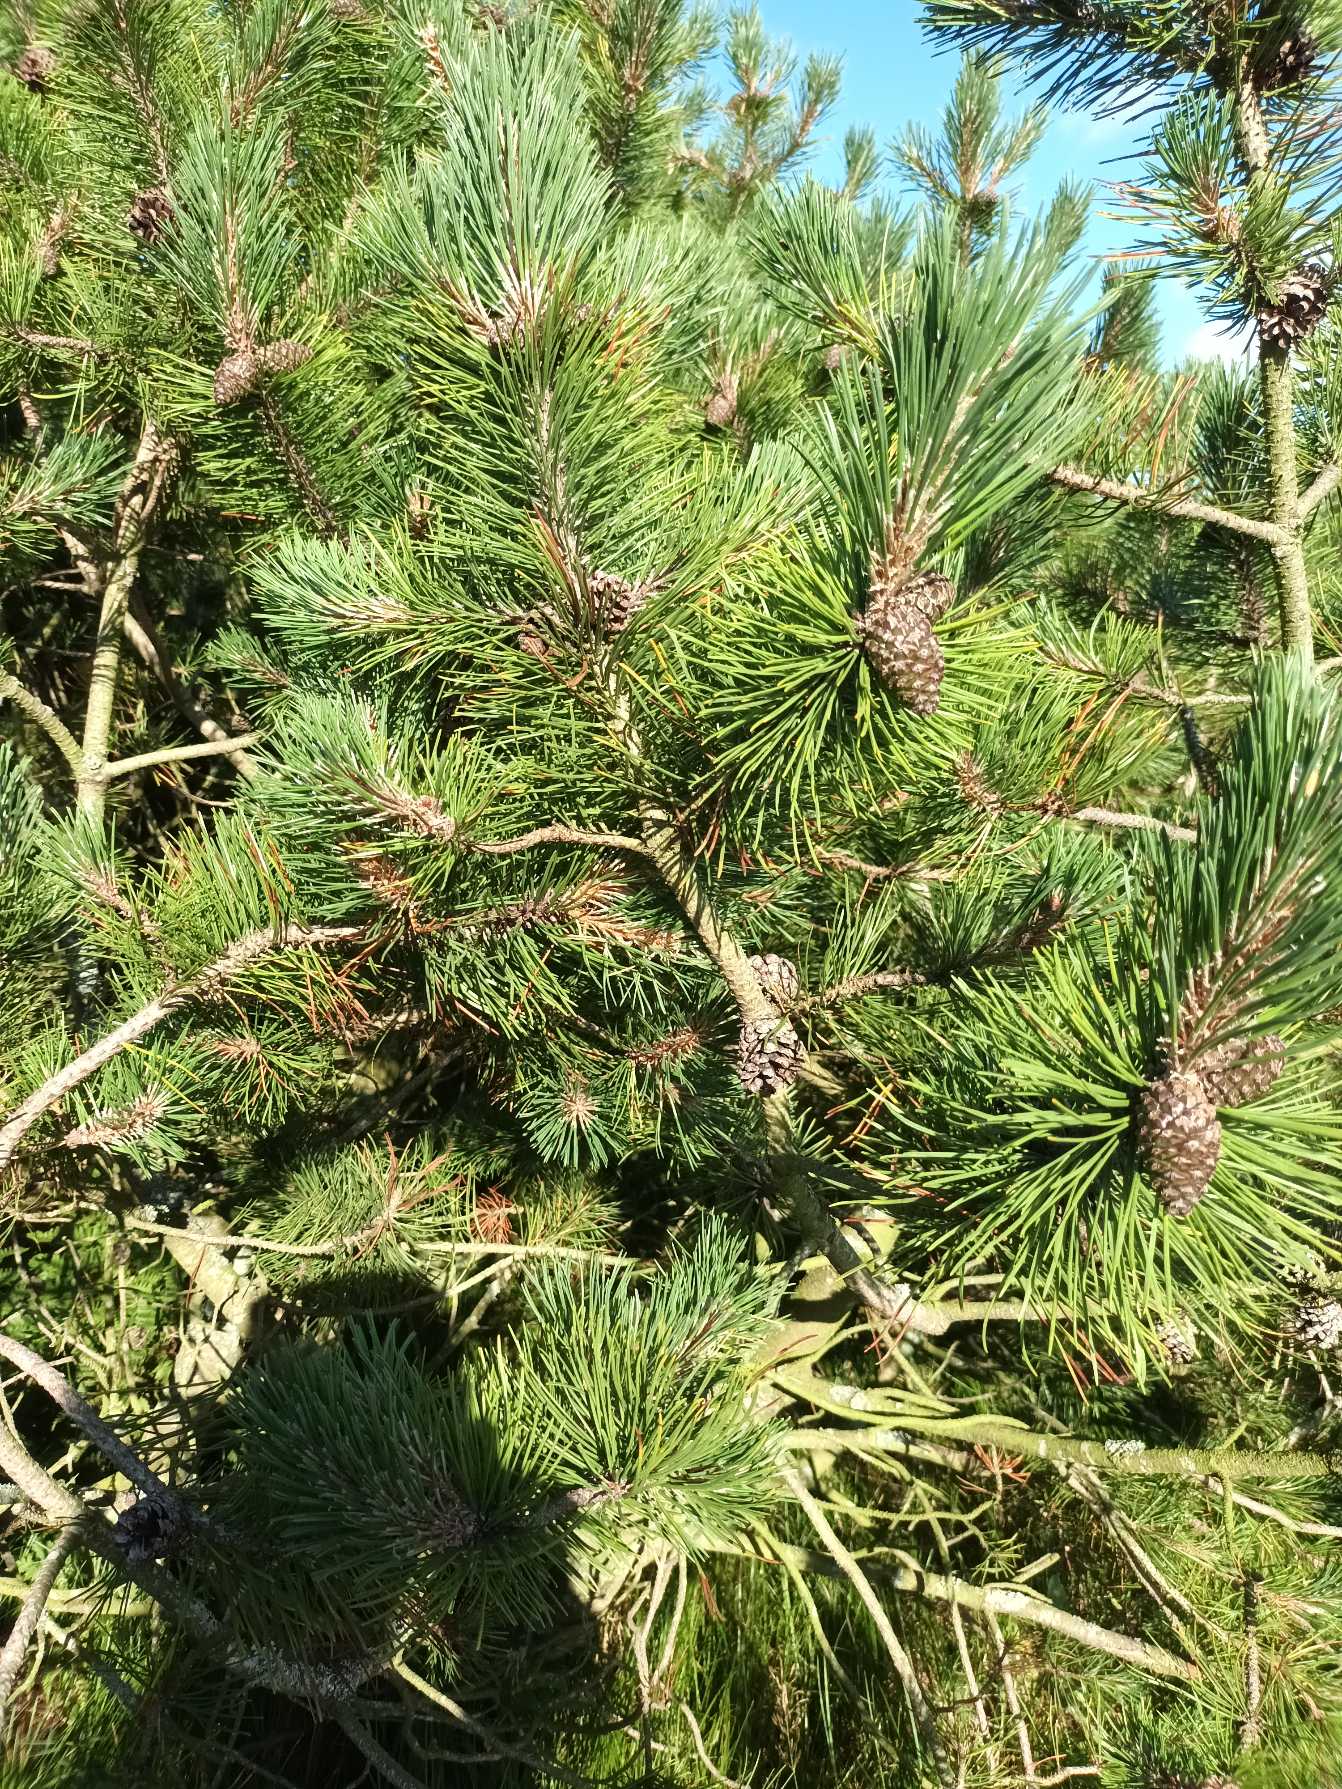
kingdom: Plantae
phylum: Tracheophyta
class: Pinopsida
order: Pinales
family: Pinaceae
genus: Pinus
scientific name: Pinus mugo
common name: Bjerg-fyr
